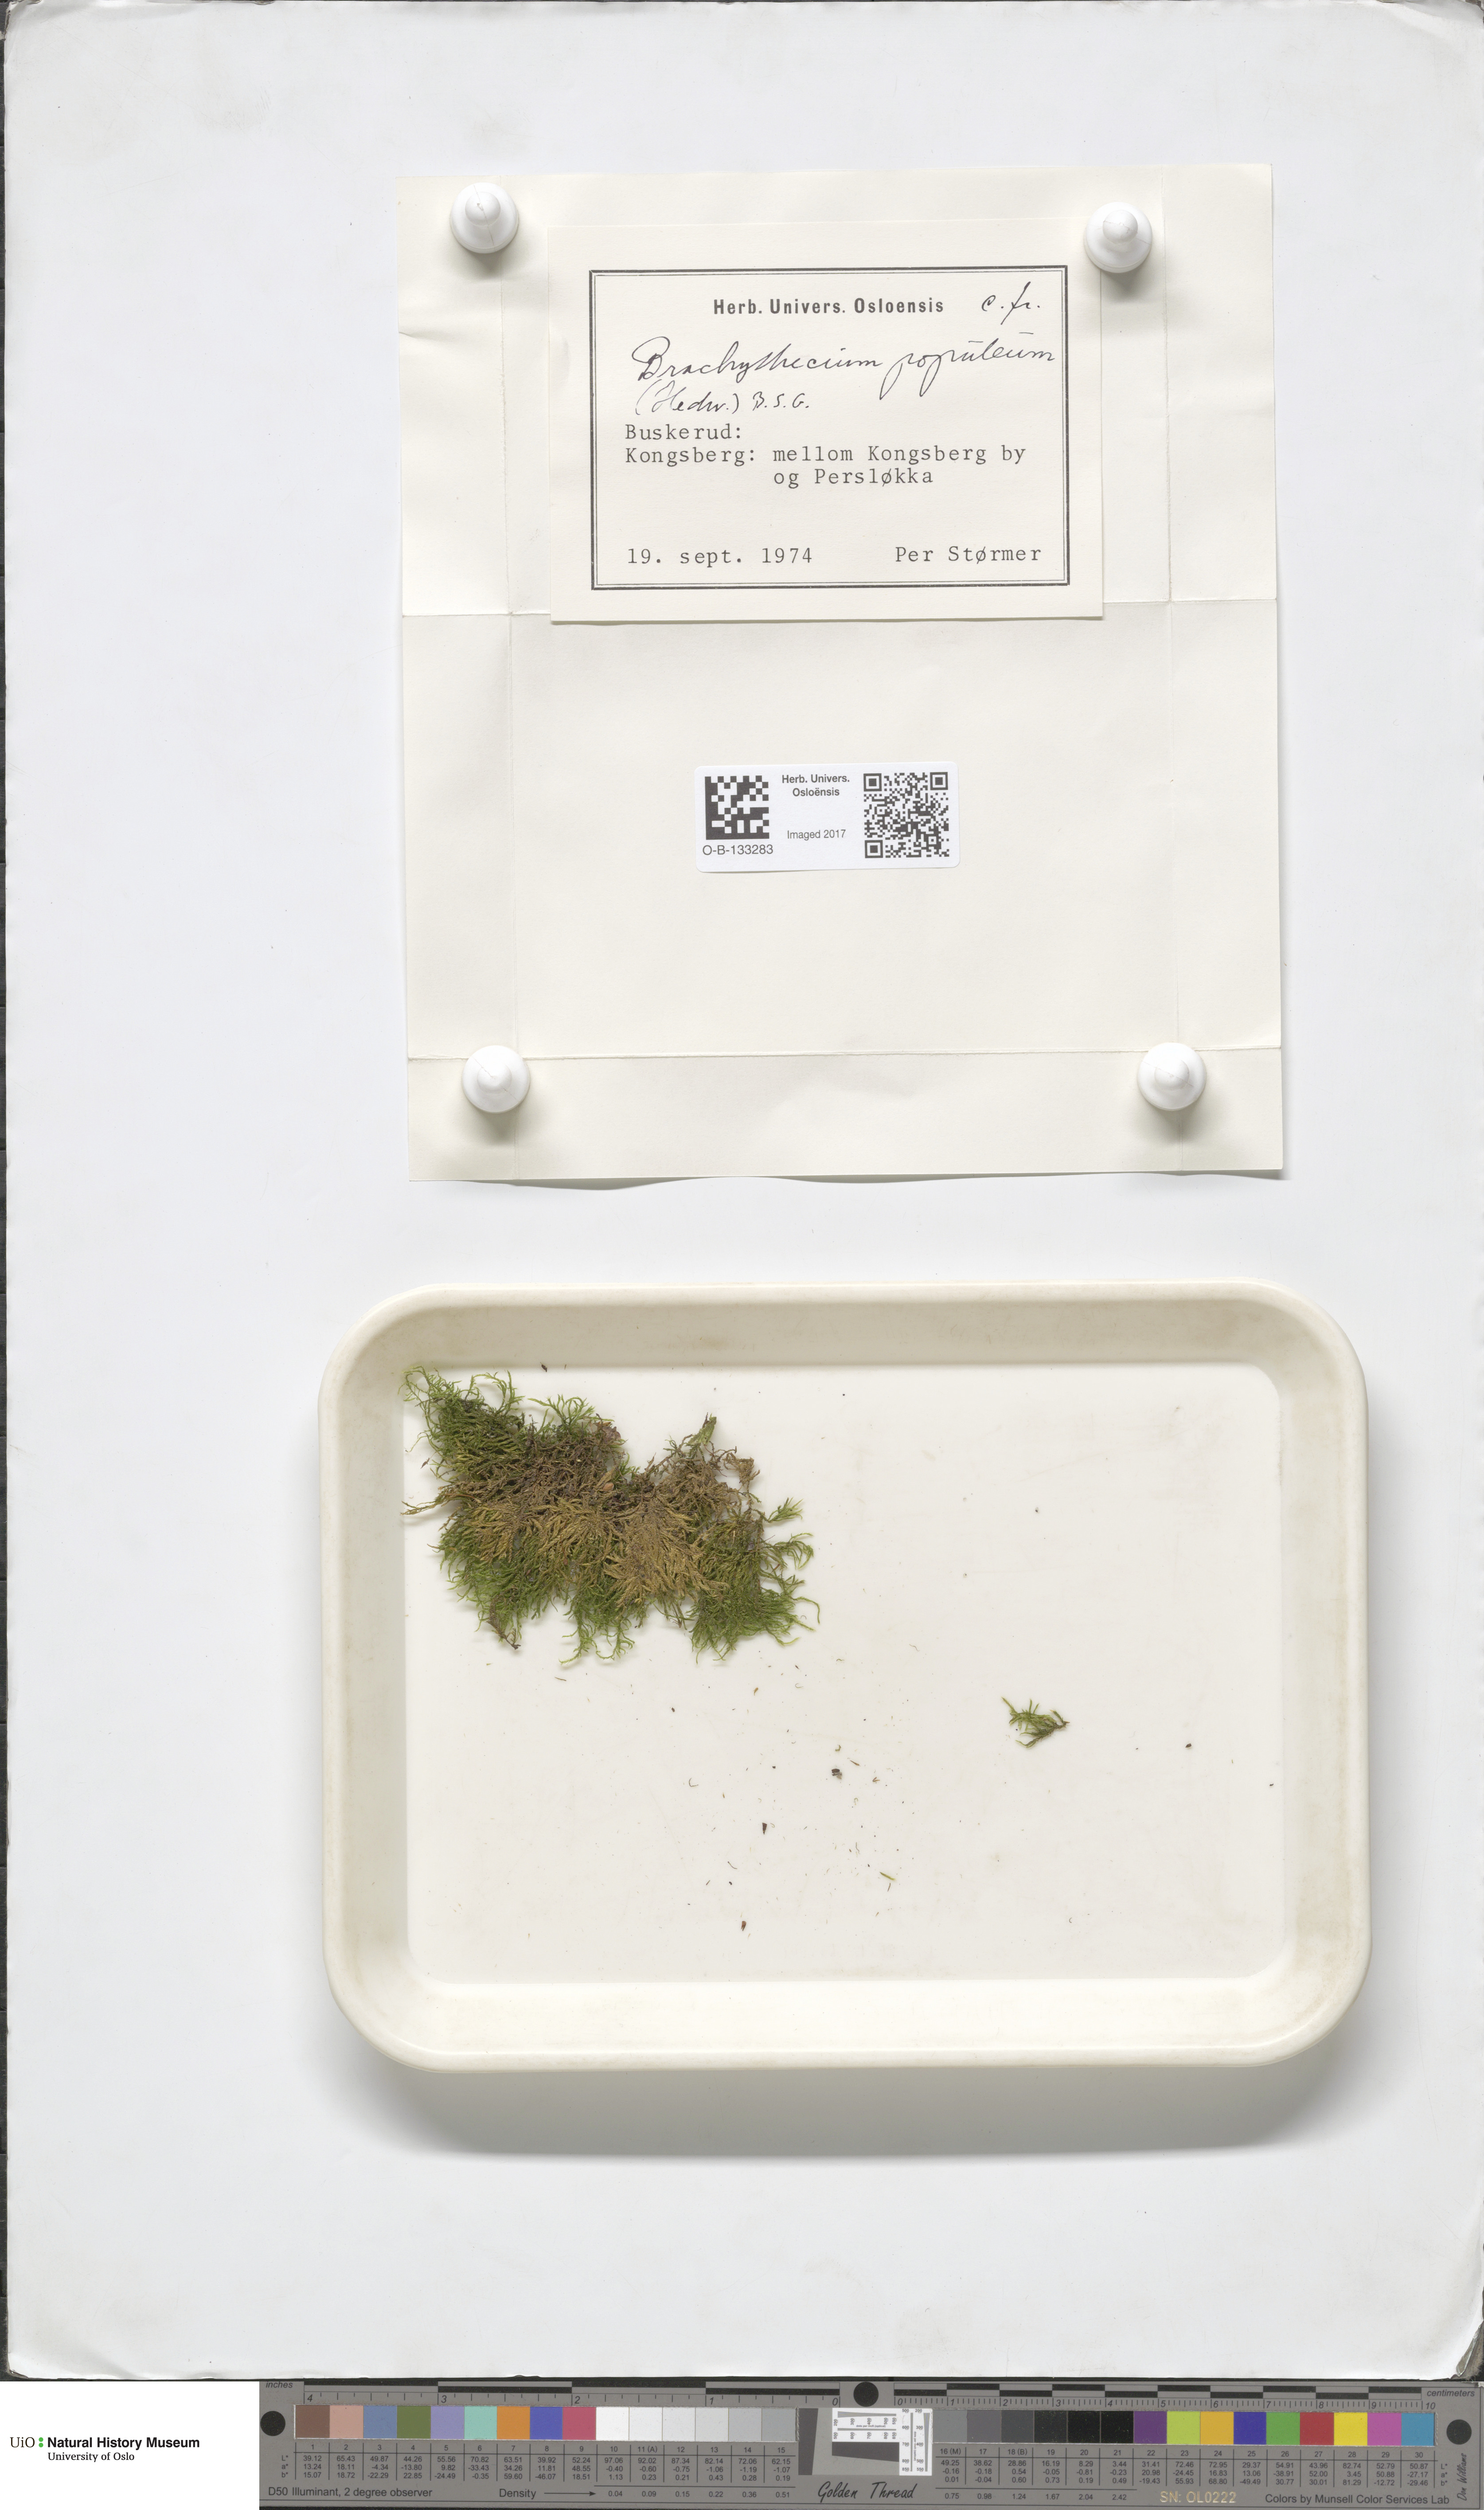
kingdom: Plantae
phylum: Bryophyta
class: Bryopsida
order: Hypnales
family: Brachytheciaceae
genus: Sciuro-hypnum
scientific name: Sciuro-hypnum plumosum
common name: Rusty feather-moss
